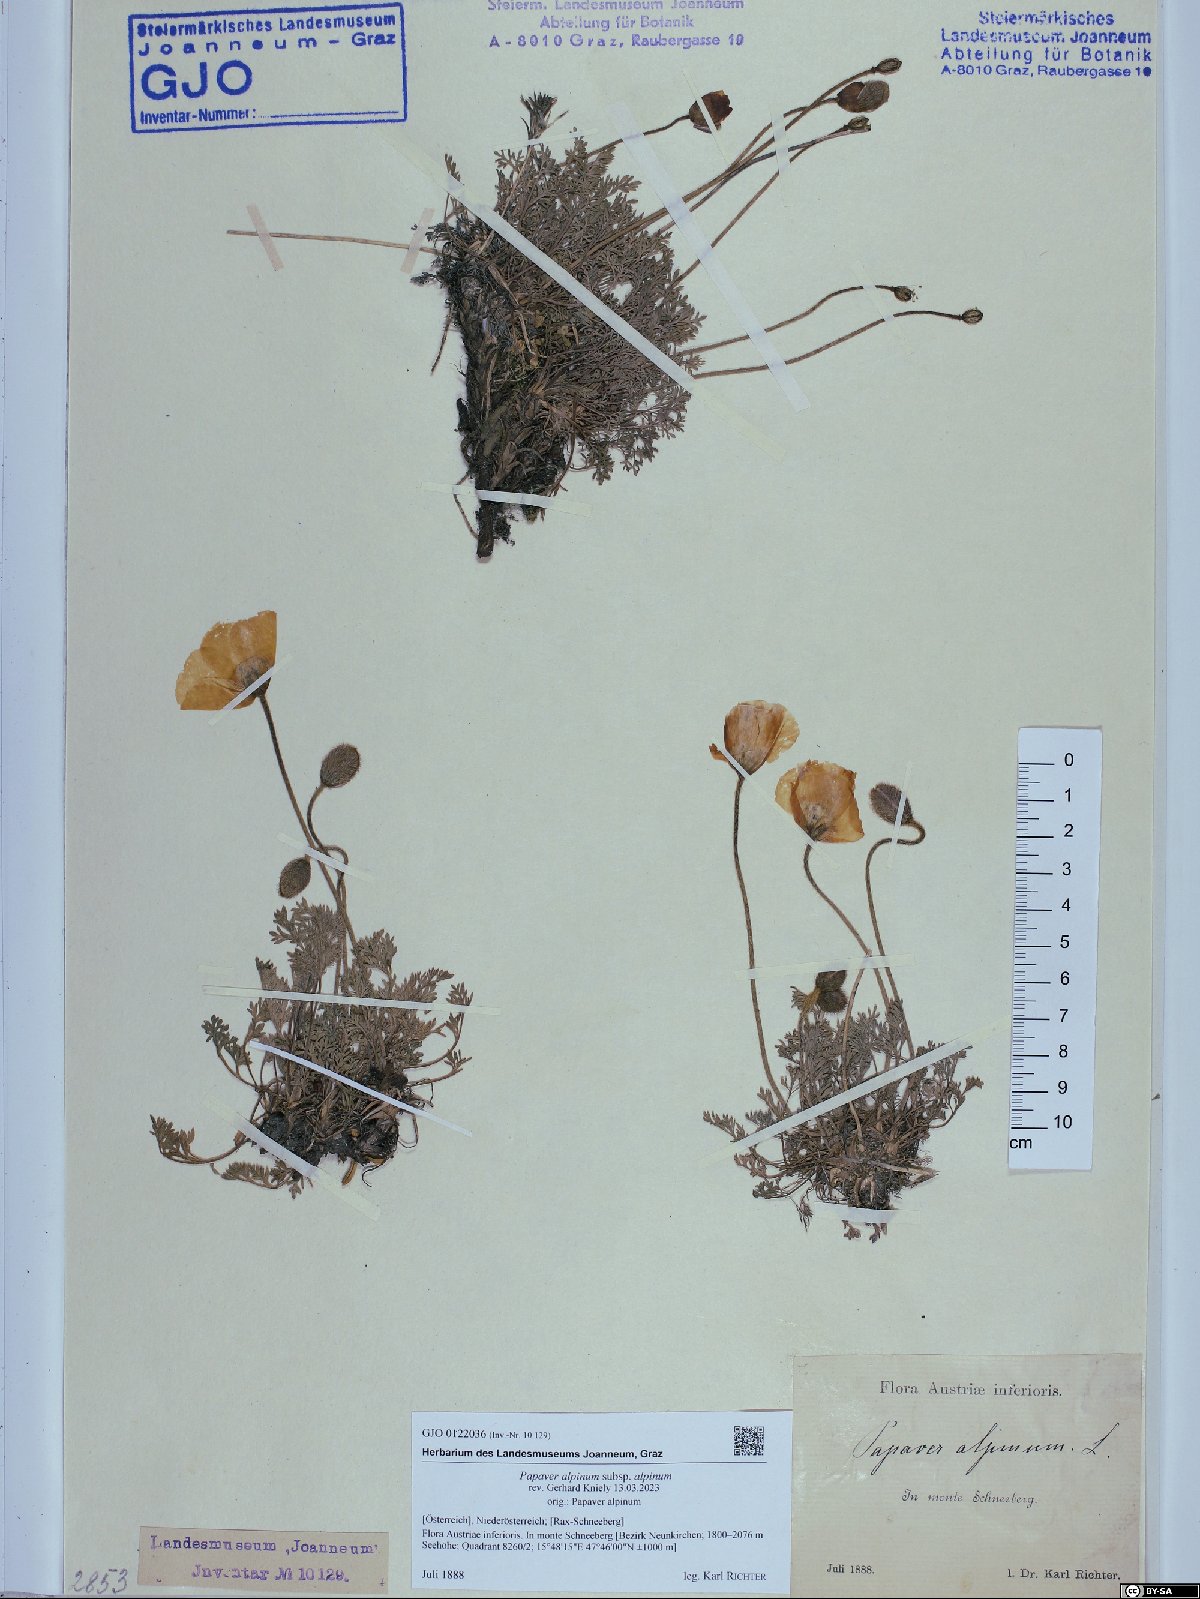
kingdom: Plantae
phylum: Tracheophyta
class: Magnoliopsida
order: Ranunculales
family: Papaveraceae
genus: Papaver
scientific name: Papaver alpinum
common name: Austrian poppy
